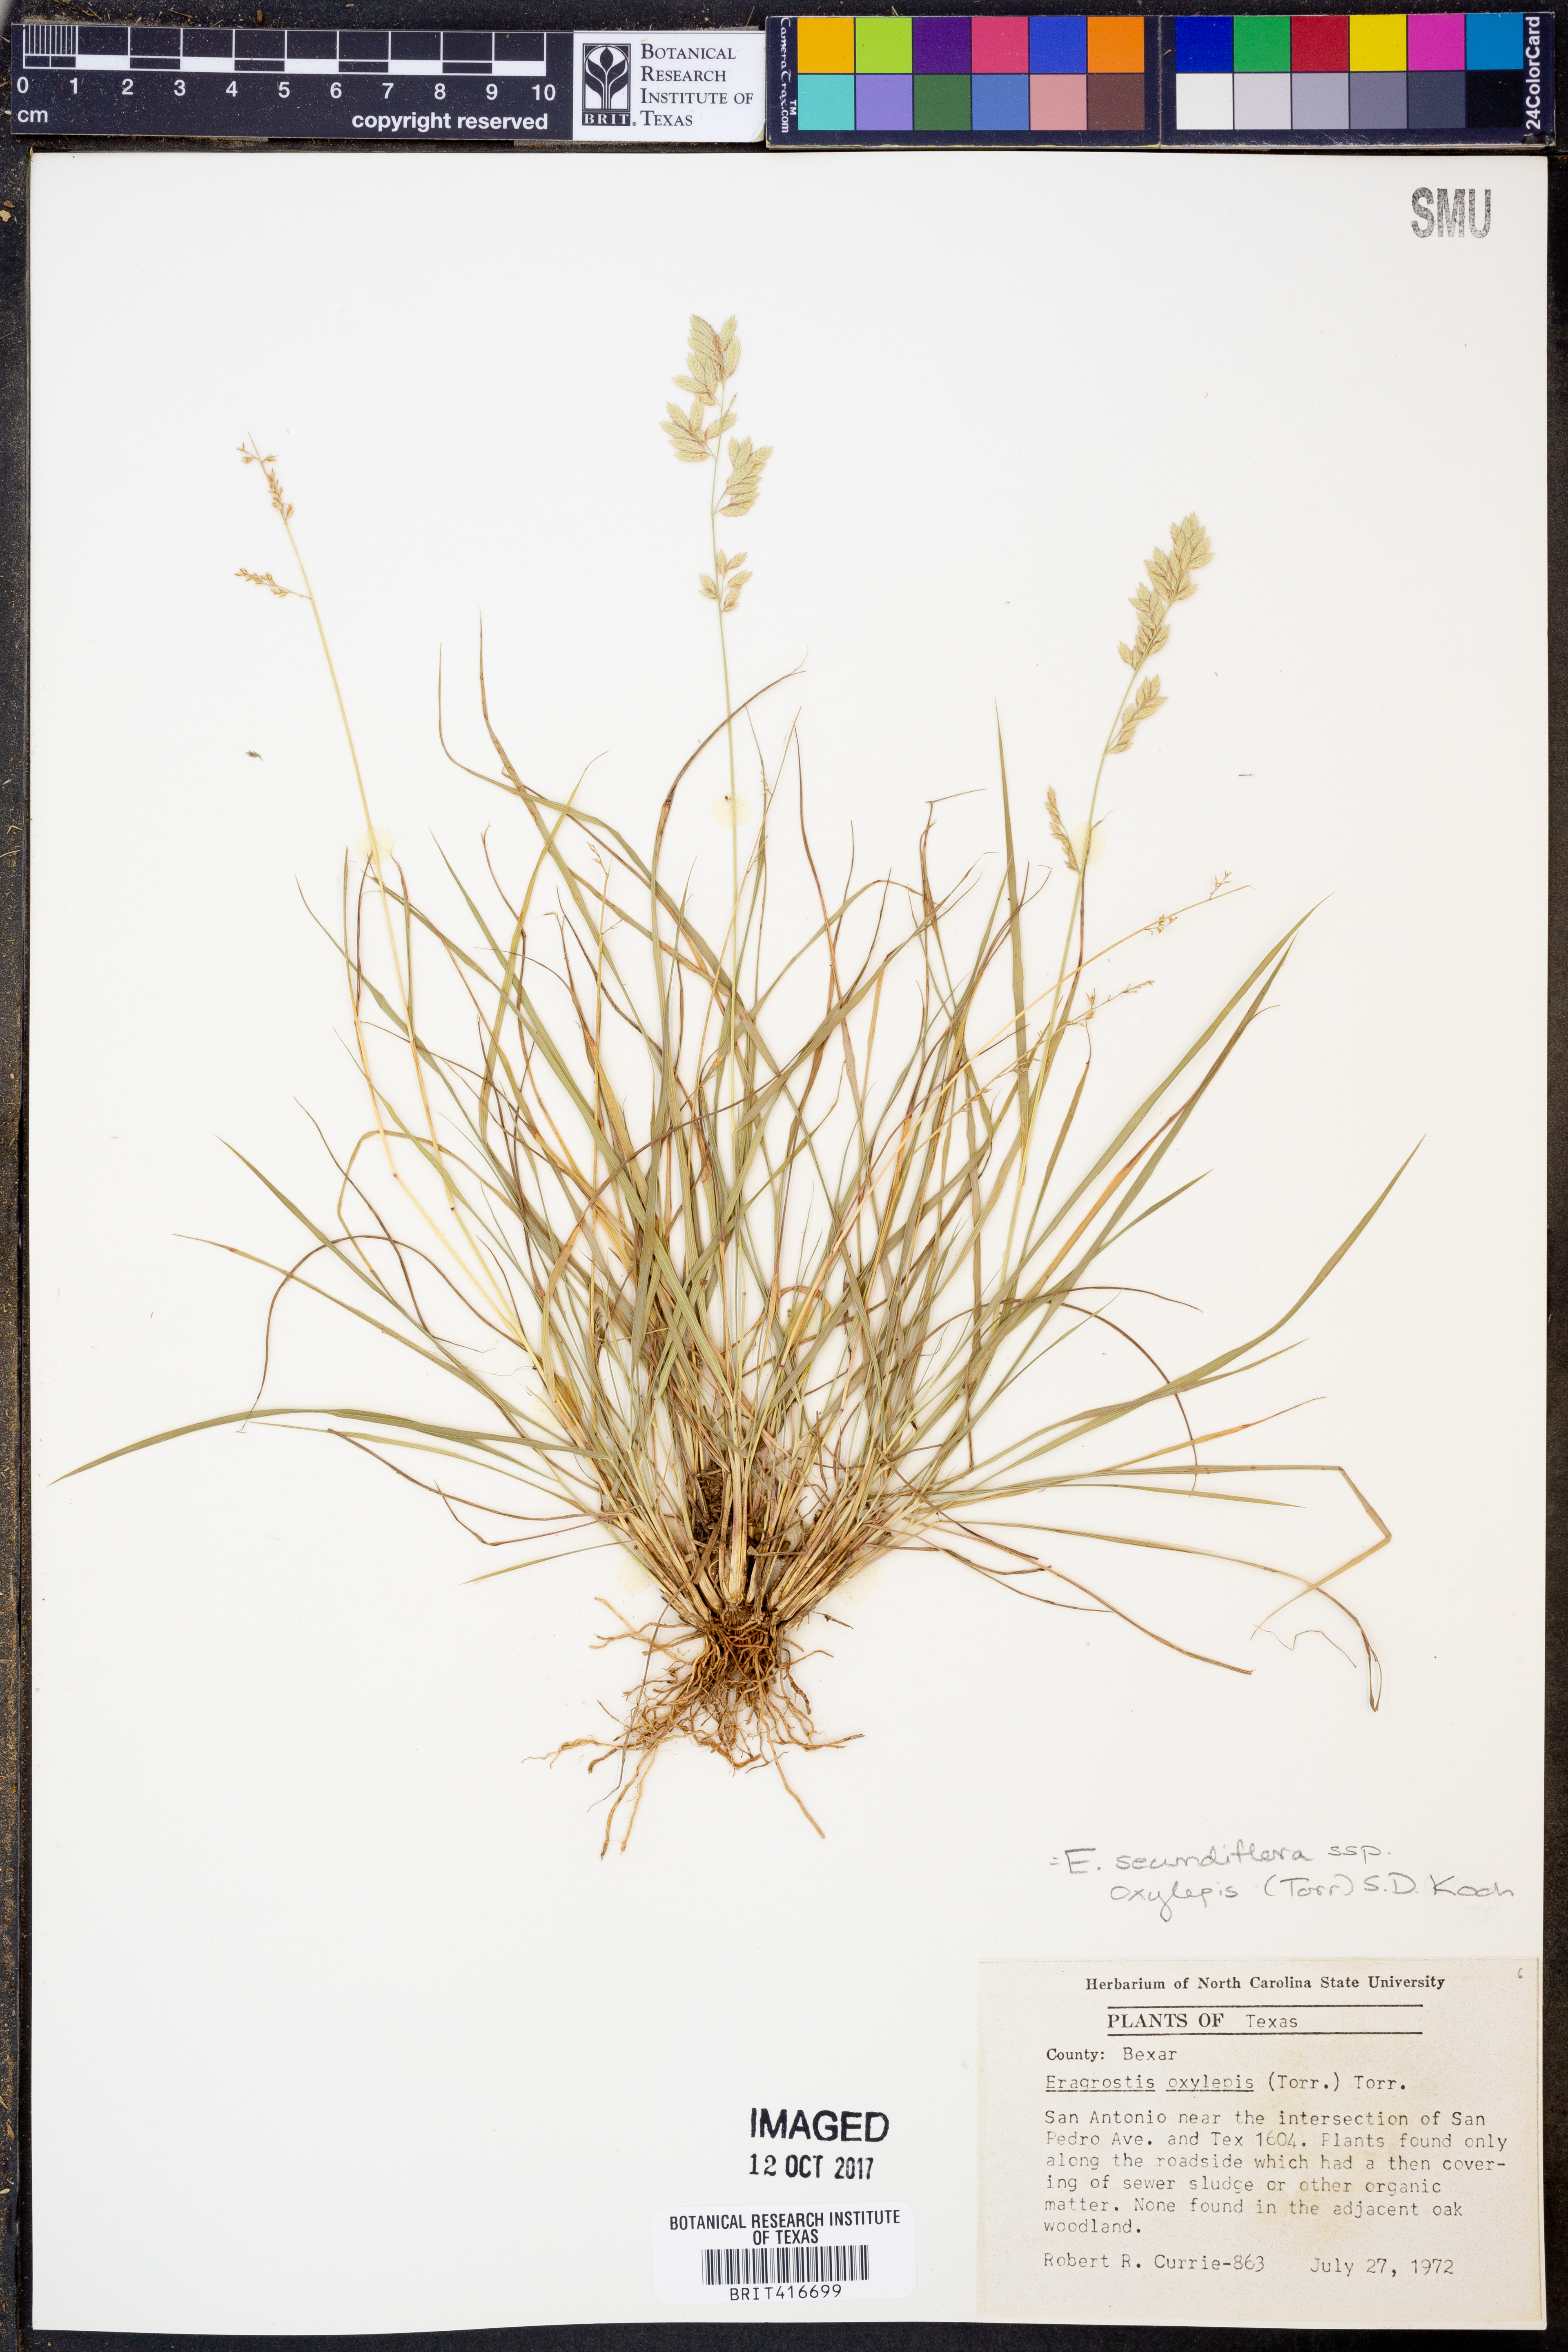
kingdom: Plantae
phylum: Tracheophyta
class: Liliopsida
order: Poales
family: Poaceae
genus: Eragrostis
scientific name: Eragrostis secundiflora
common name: Red love grass
